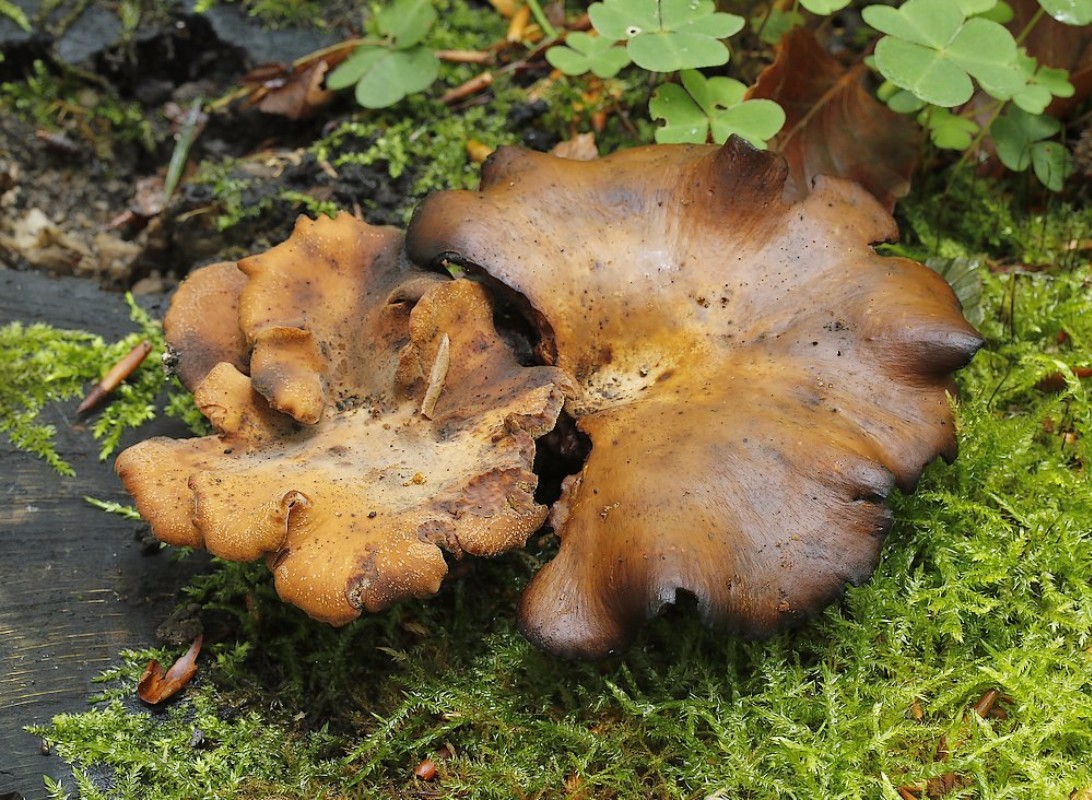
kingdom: Fungi
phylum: Basidiomycota
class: Agaricomycetes
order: Polyporales
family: Polyporaceae
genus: Cerioporus
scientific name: Cerioporus varius
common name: foranderlig stilkporesvamp
